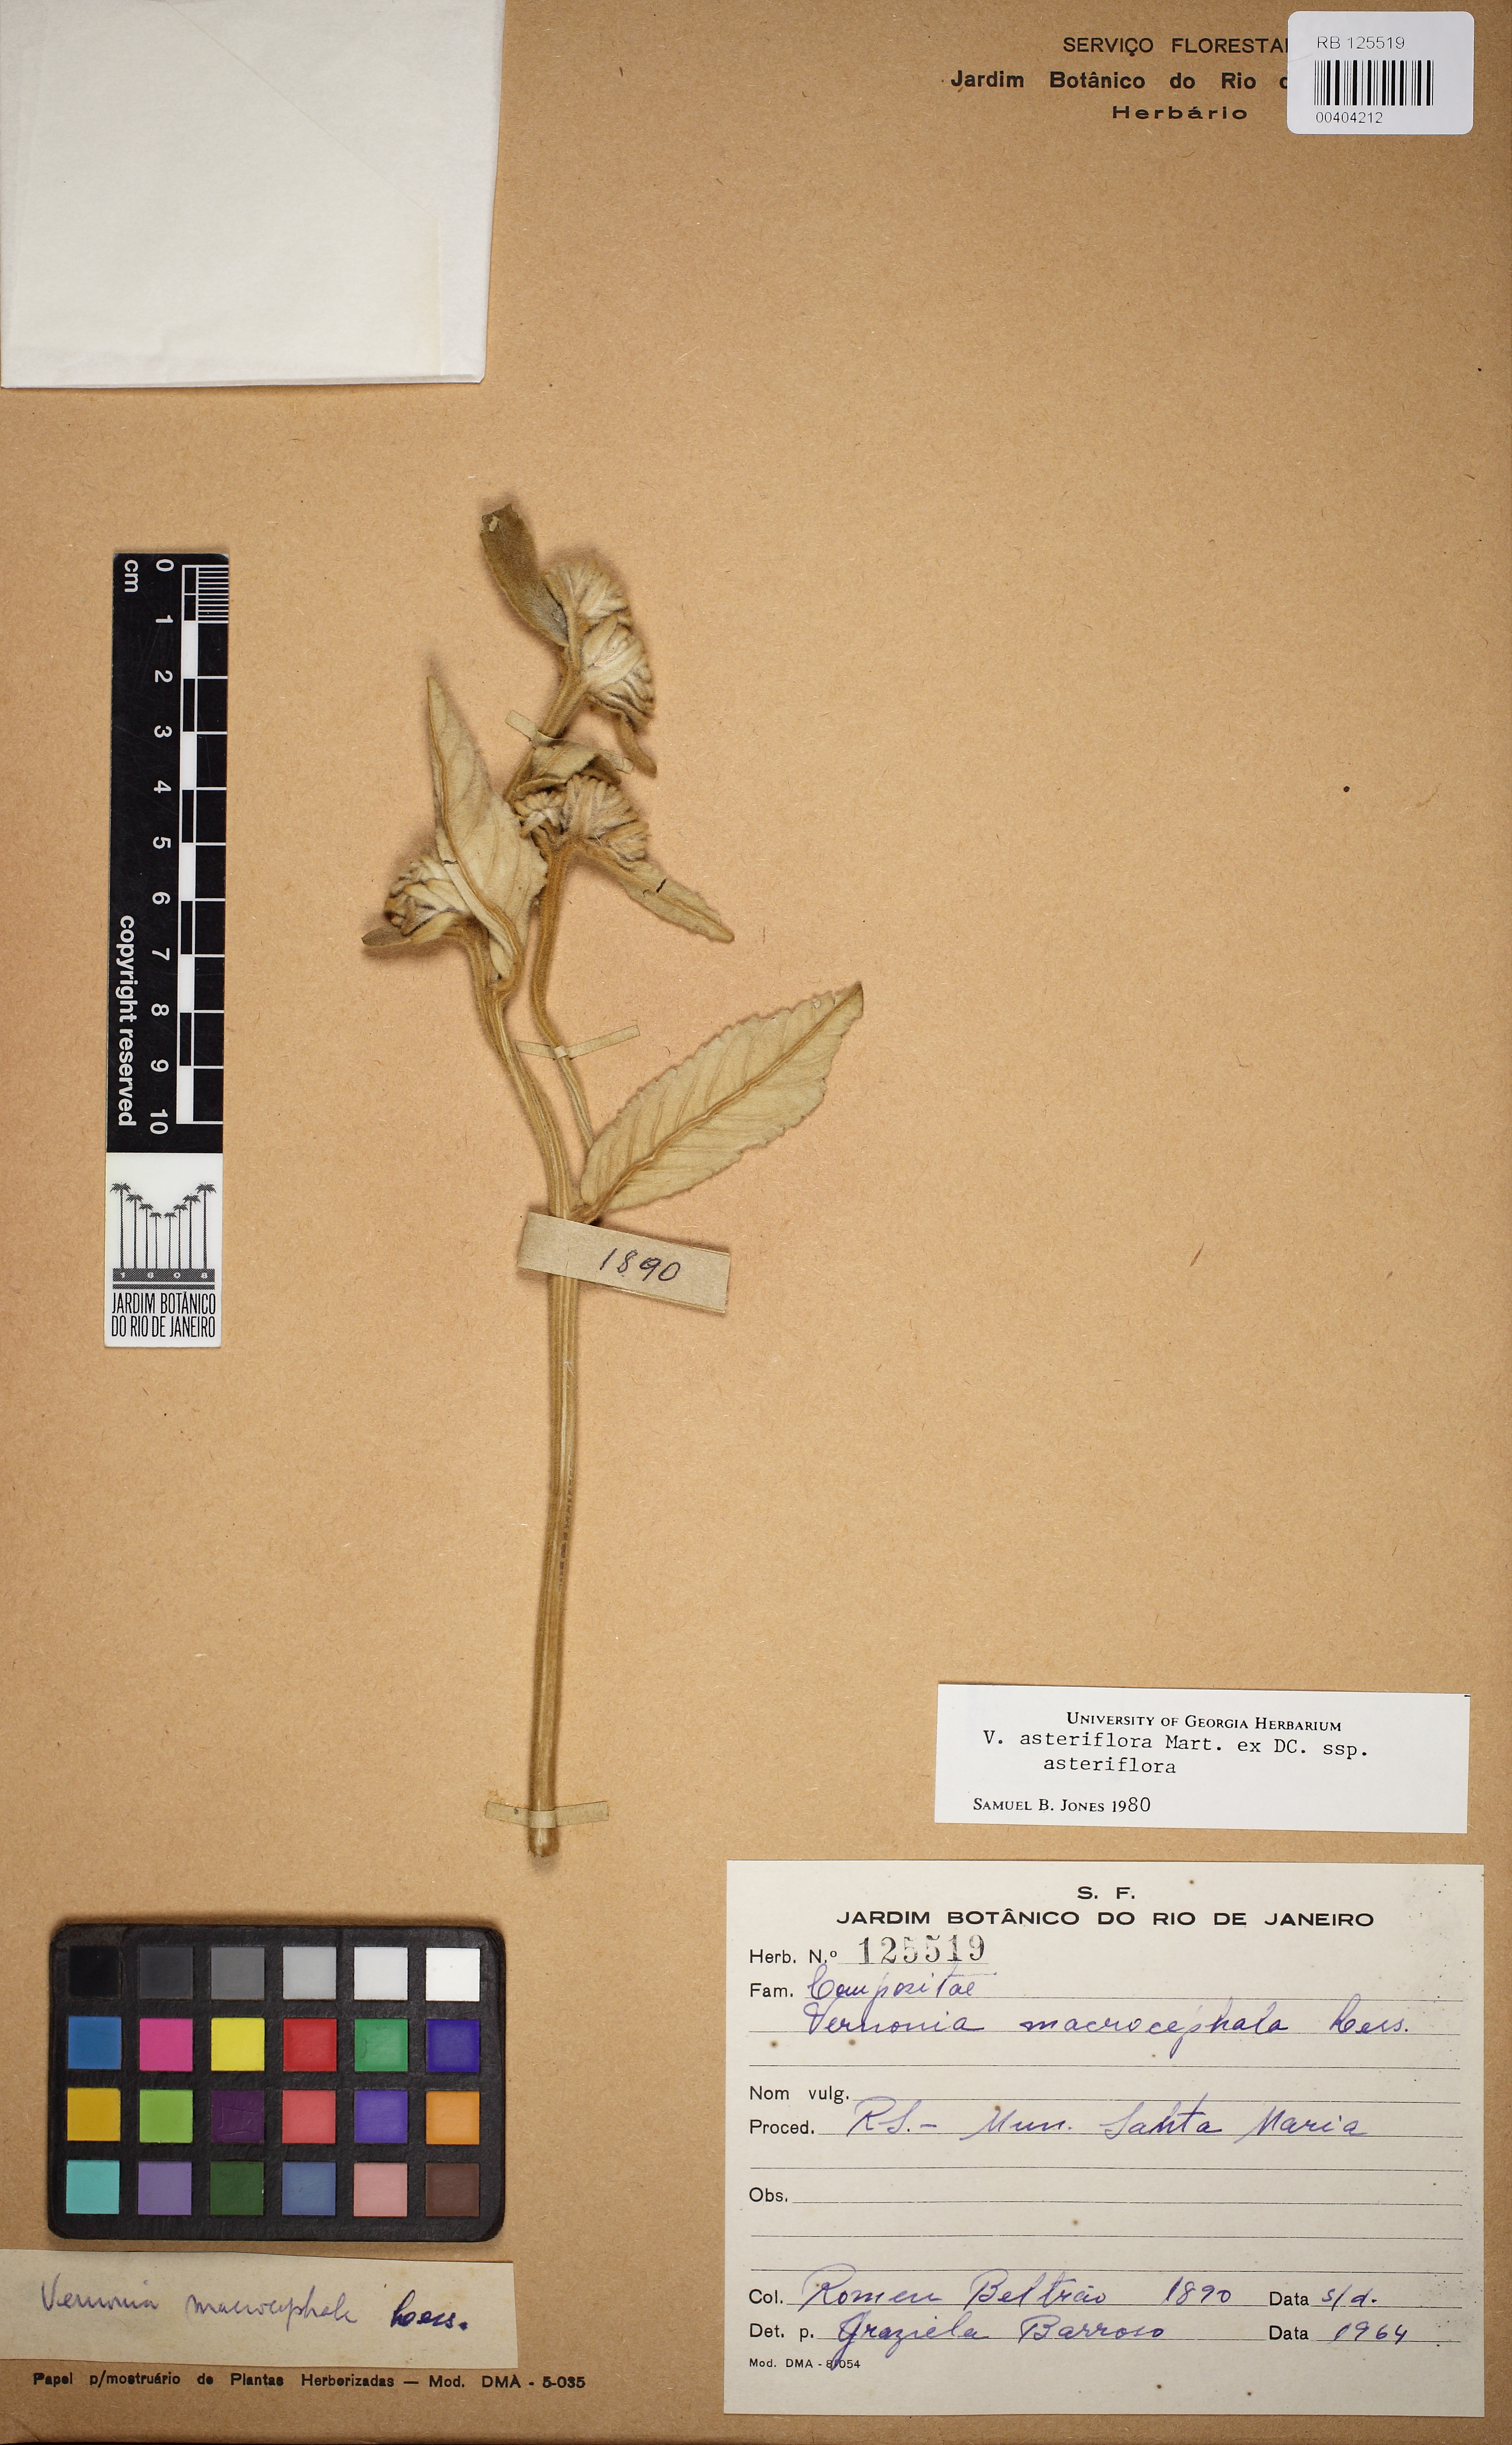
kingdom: Plantae
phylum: Tracheophyta
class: Magnoliopsida
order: Asterales
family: Asteraceae
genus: Lessingianthus
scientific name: Lessingianthus asteriflorus
